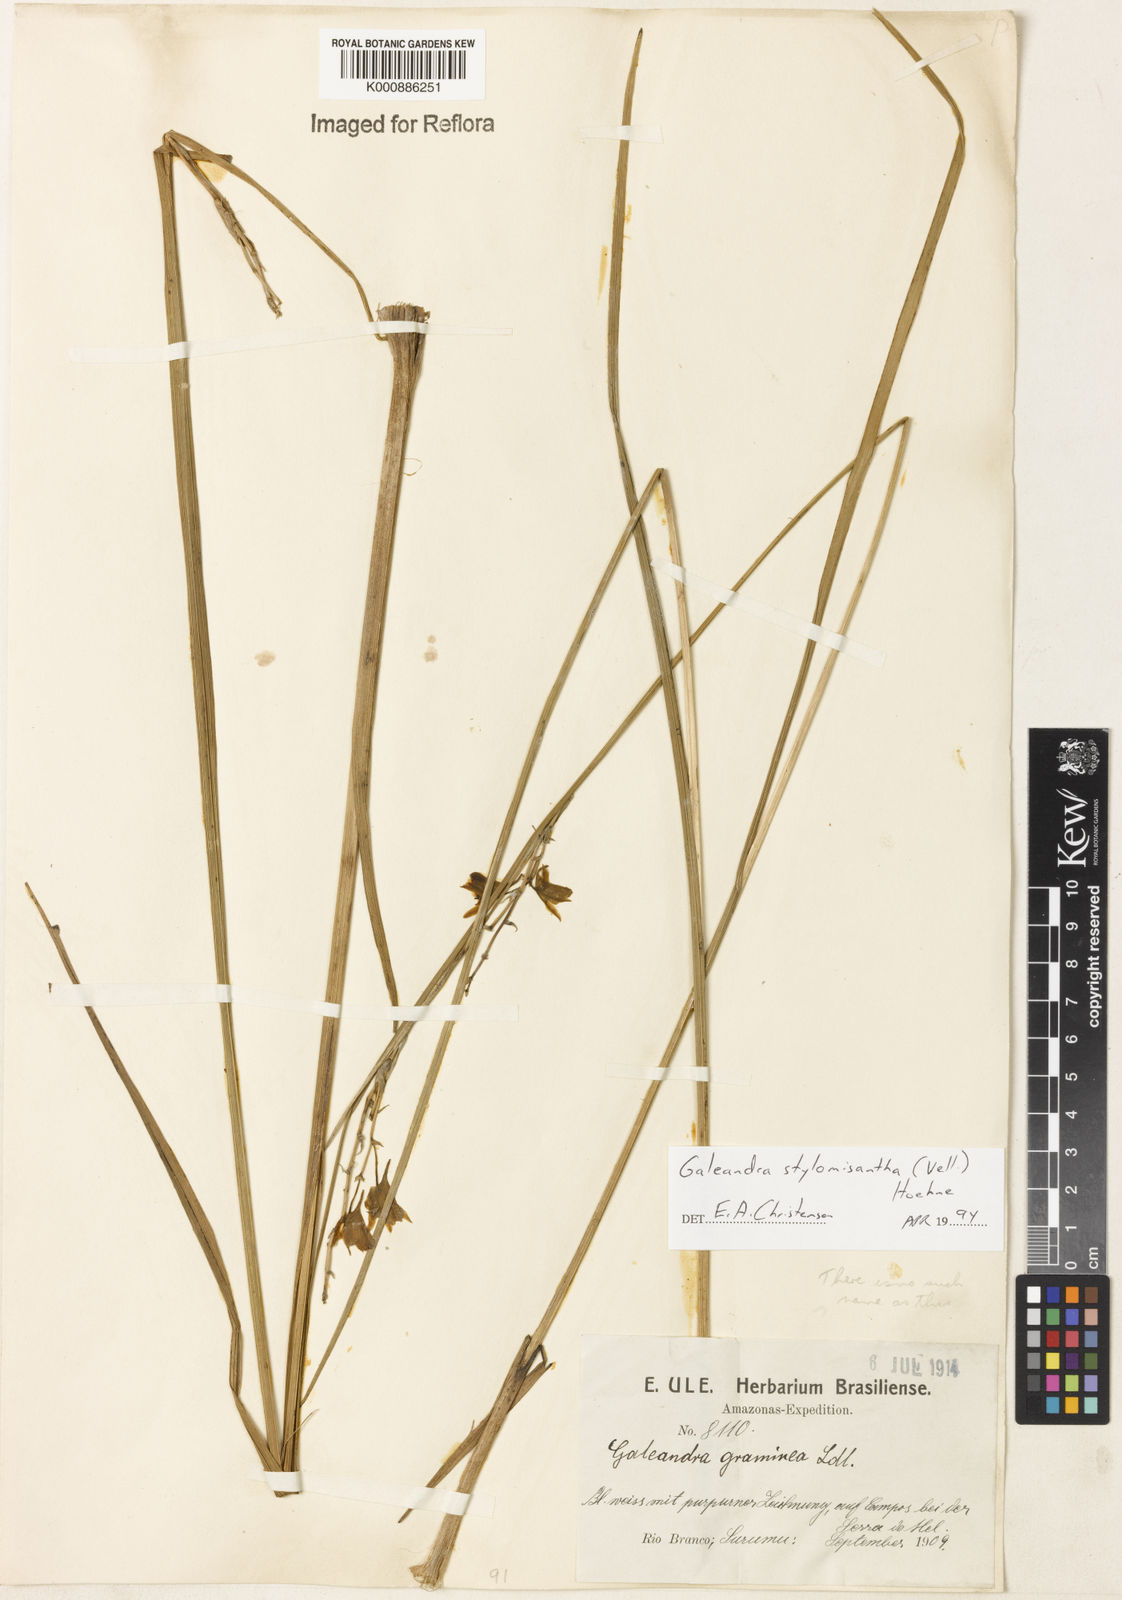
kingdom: Plantae
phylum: Tracheophyta
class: Liliopsida
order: Asparagales
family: Orchidaceae
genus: Galeandra
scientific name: Galeandra styllomisantha
